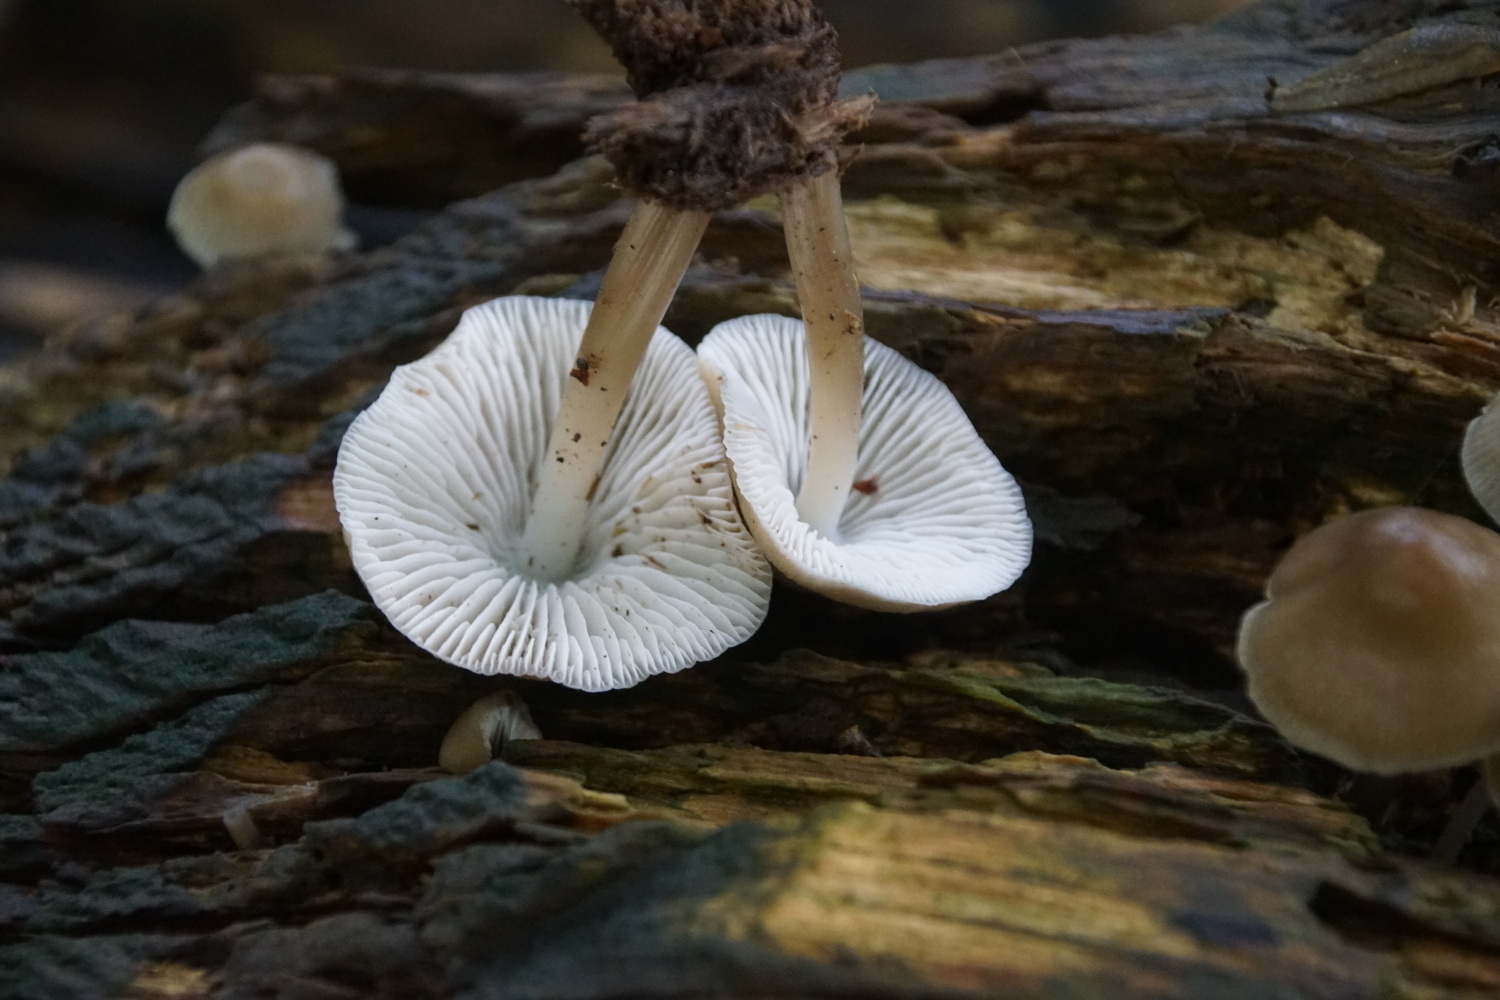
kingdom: Fungi
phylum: Basidiomycota
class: Agaricomycetes
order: Agaricales
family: Mycenaceae
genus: Mycena
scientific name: Mycena galericulata
